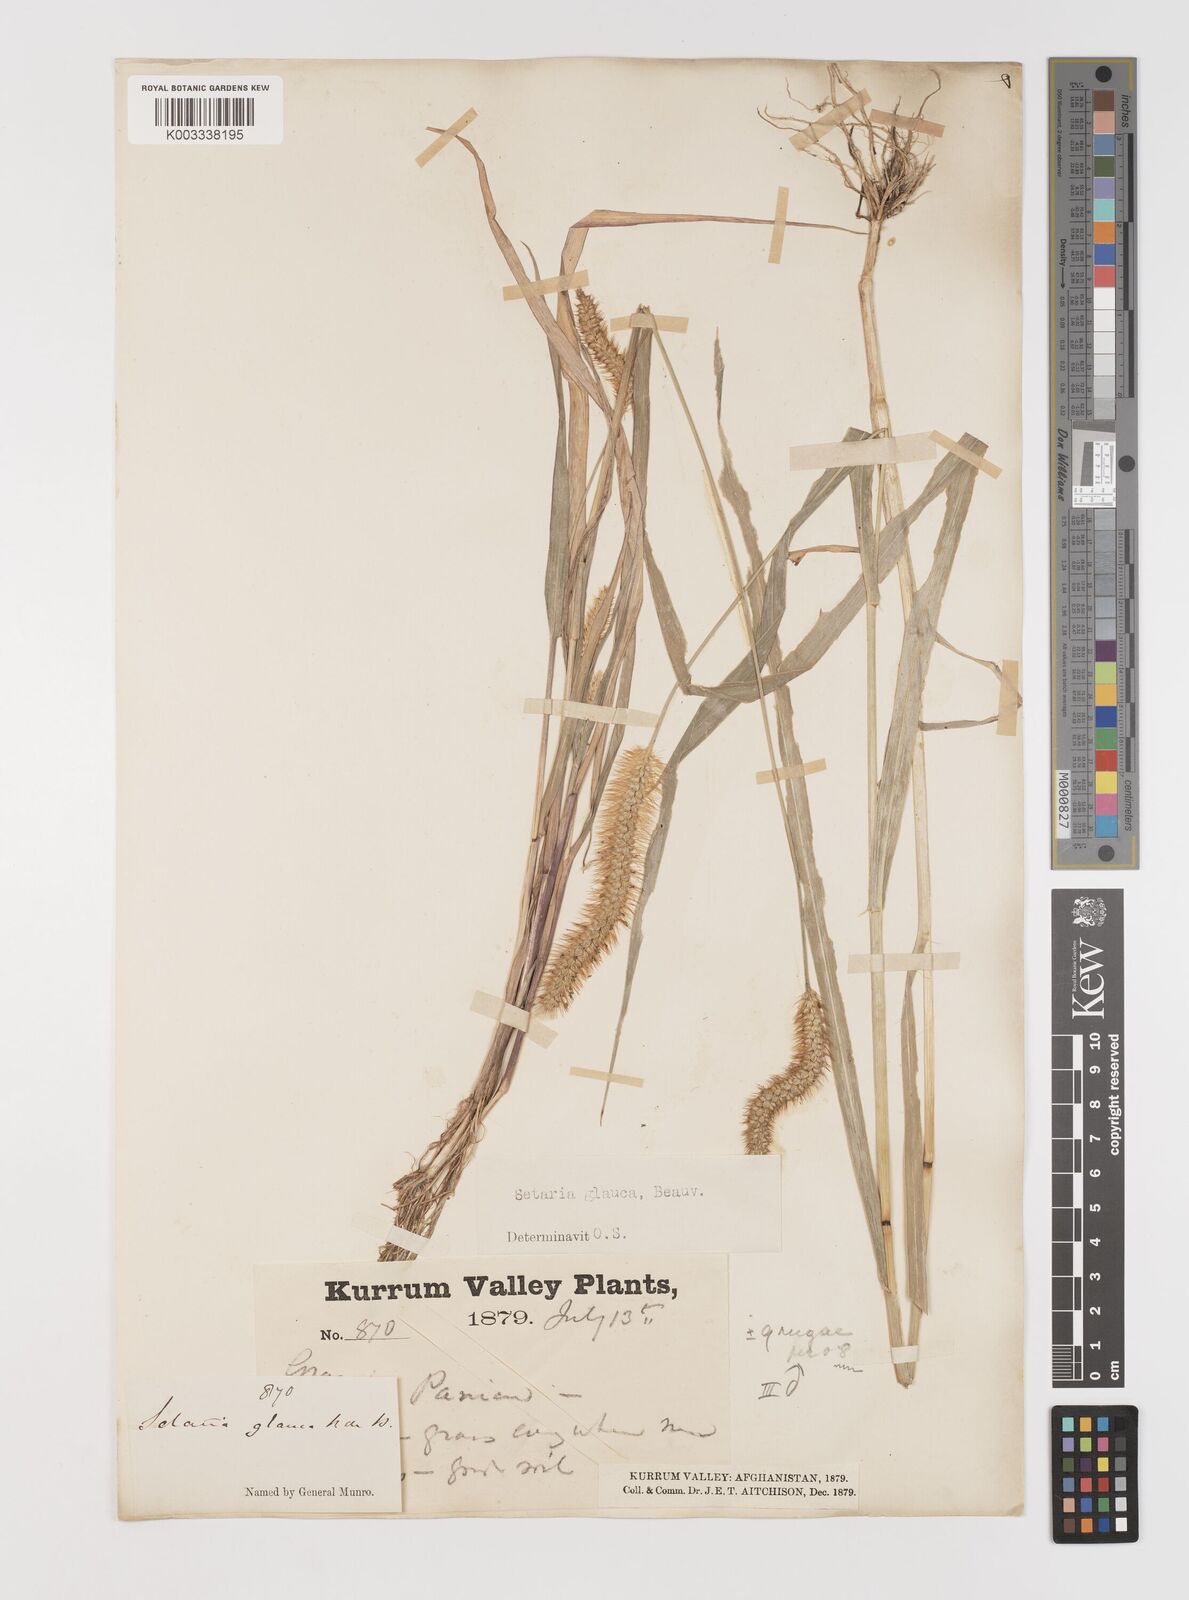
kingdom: Plantae
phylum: Tracheophyta
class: Liliopsida
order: Poales
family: Poaceae
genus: Setaria
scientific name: Setaria pumila
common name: Yellow bristle-grass
